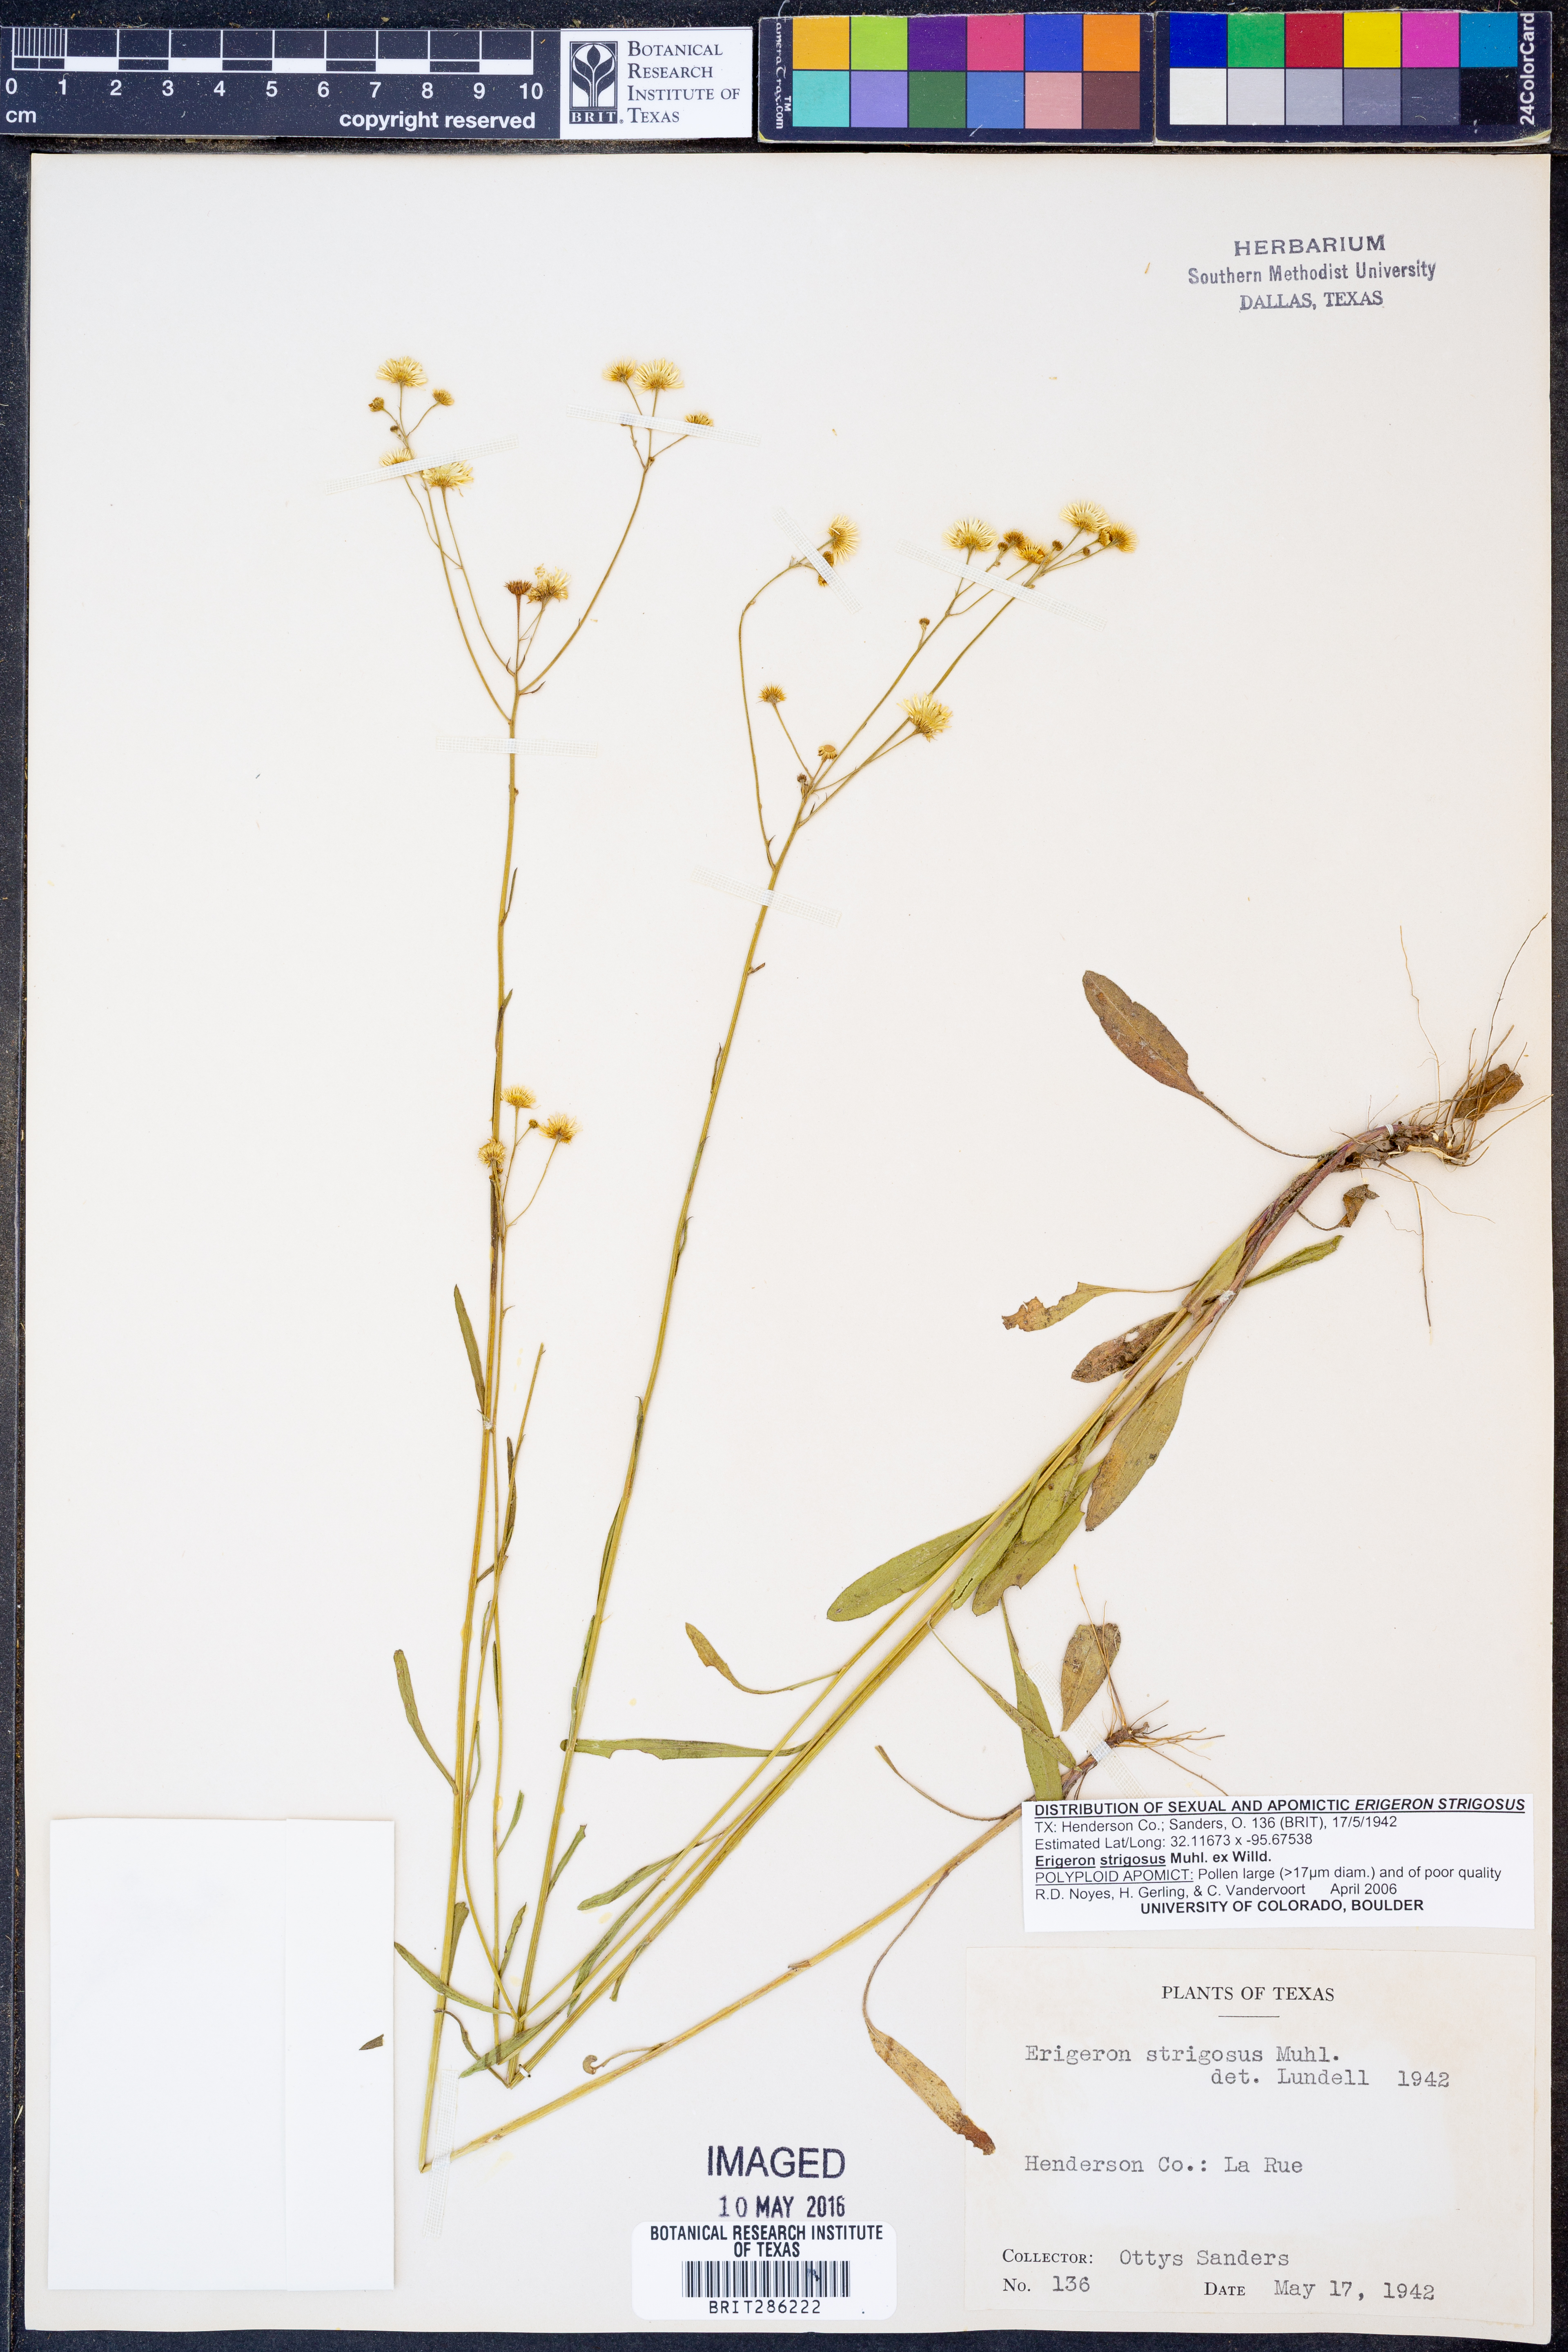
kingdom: Plantae
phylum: Tracheophyta
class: Magnoliopsida
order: Asterales
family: Asteraceae
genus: Erigeron
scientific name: Erigeron strigosus
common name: Common eastern fleabane
